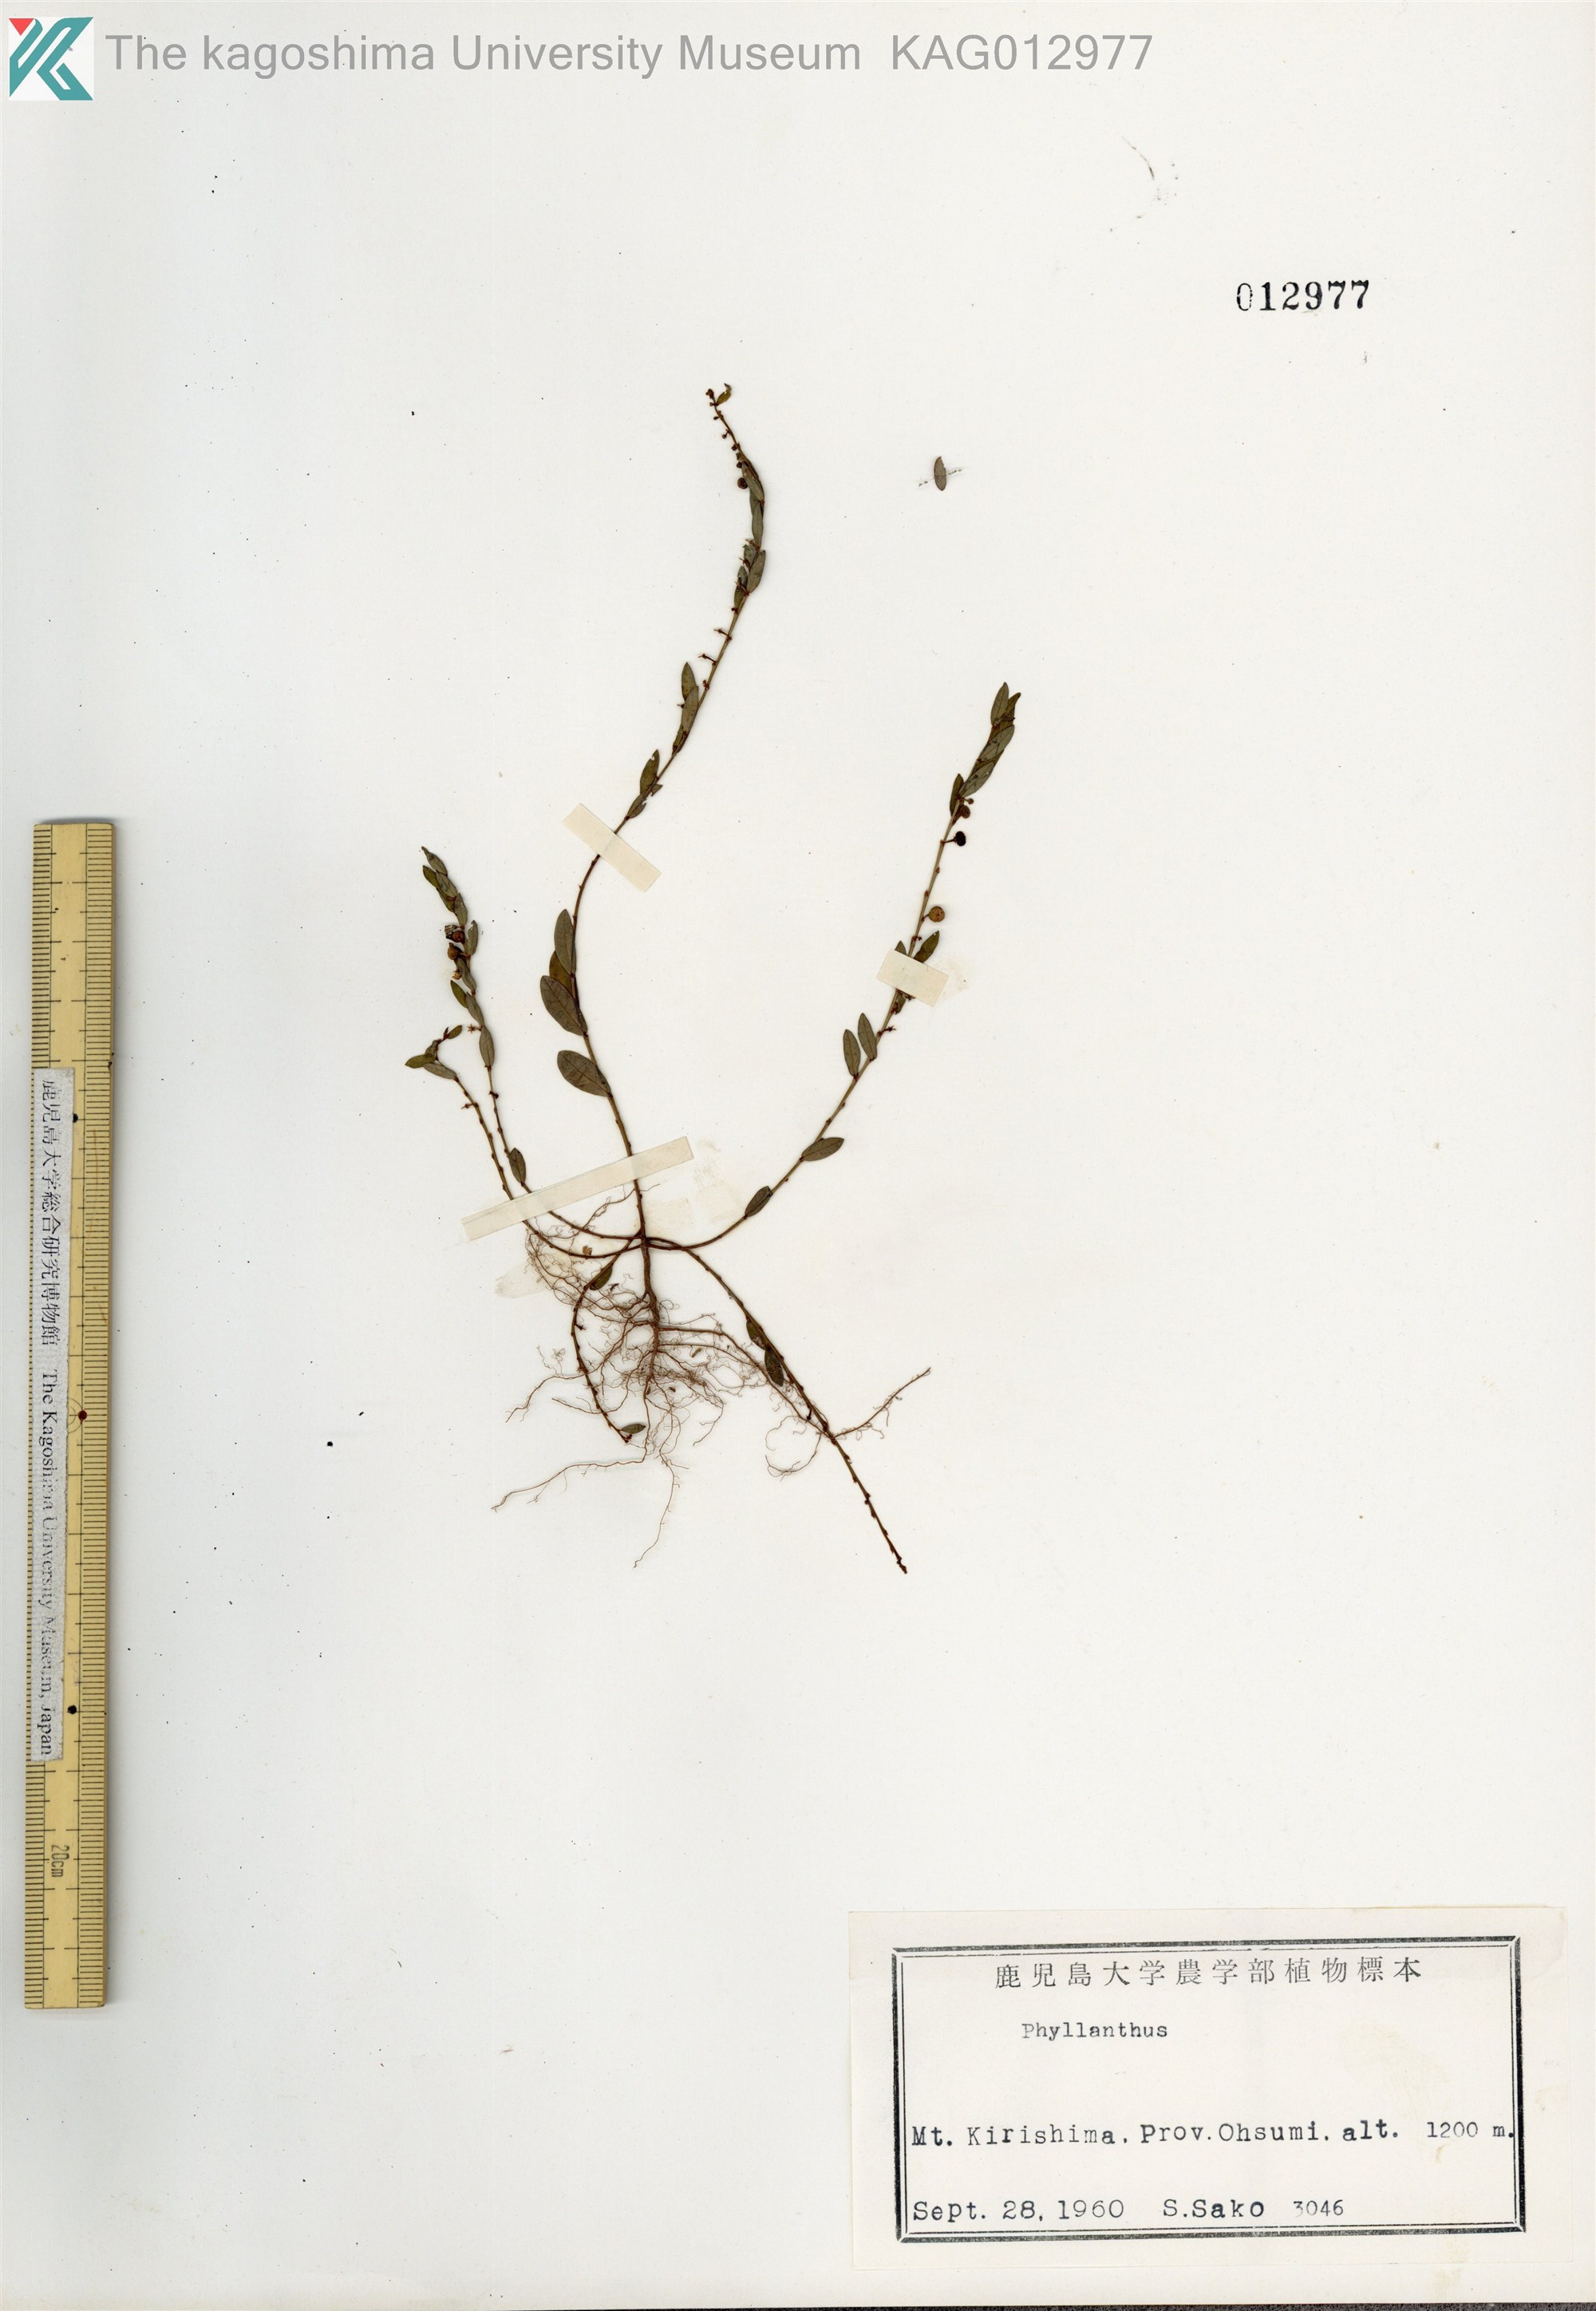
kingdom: Plantae
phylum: Tracheophyta
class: Magnoliopsida
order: Malpighiales
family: Phyllanthaceae
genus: Phyllanthus
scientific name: Phyllanthus ussuriensis
